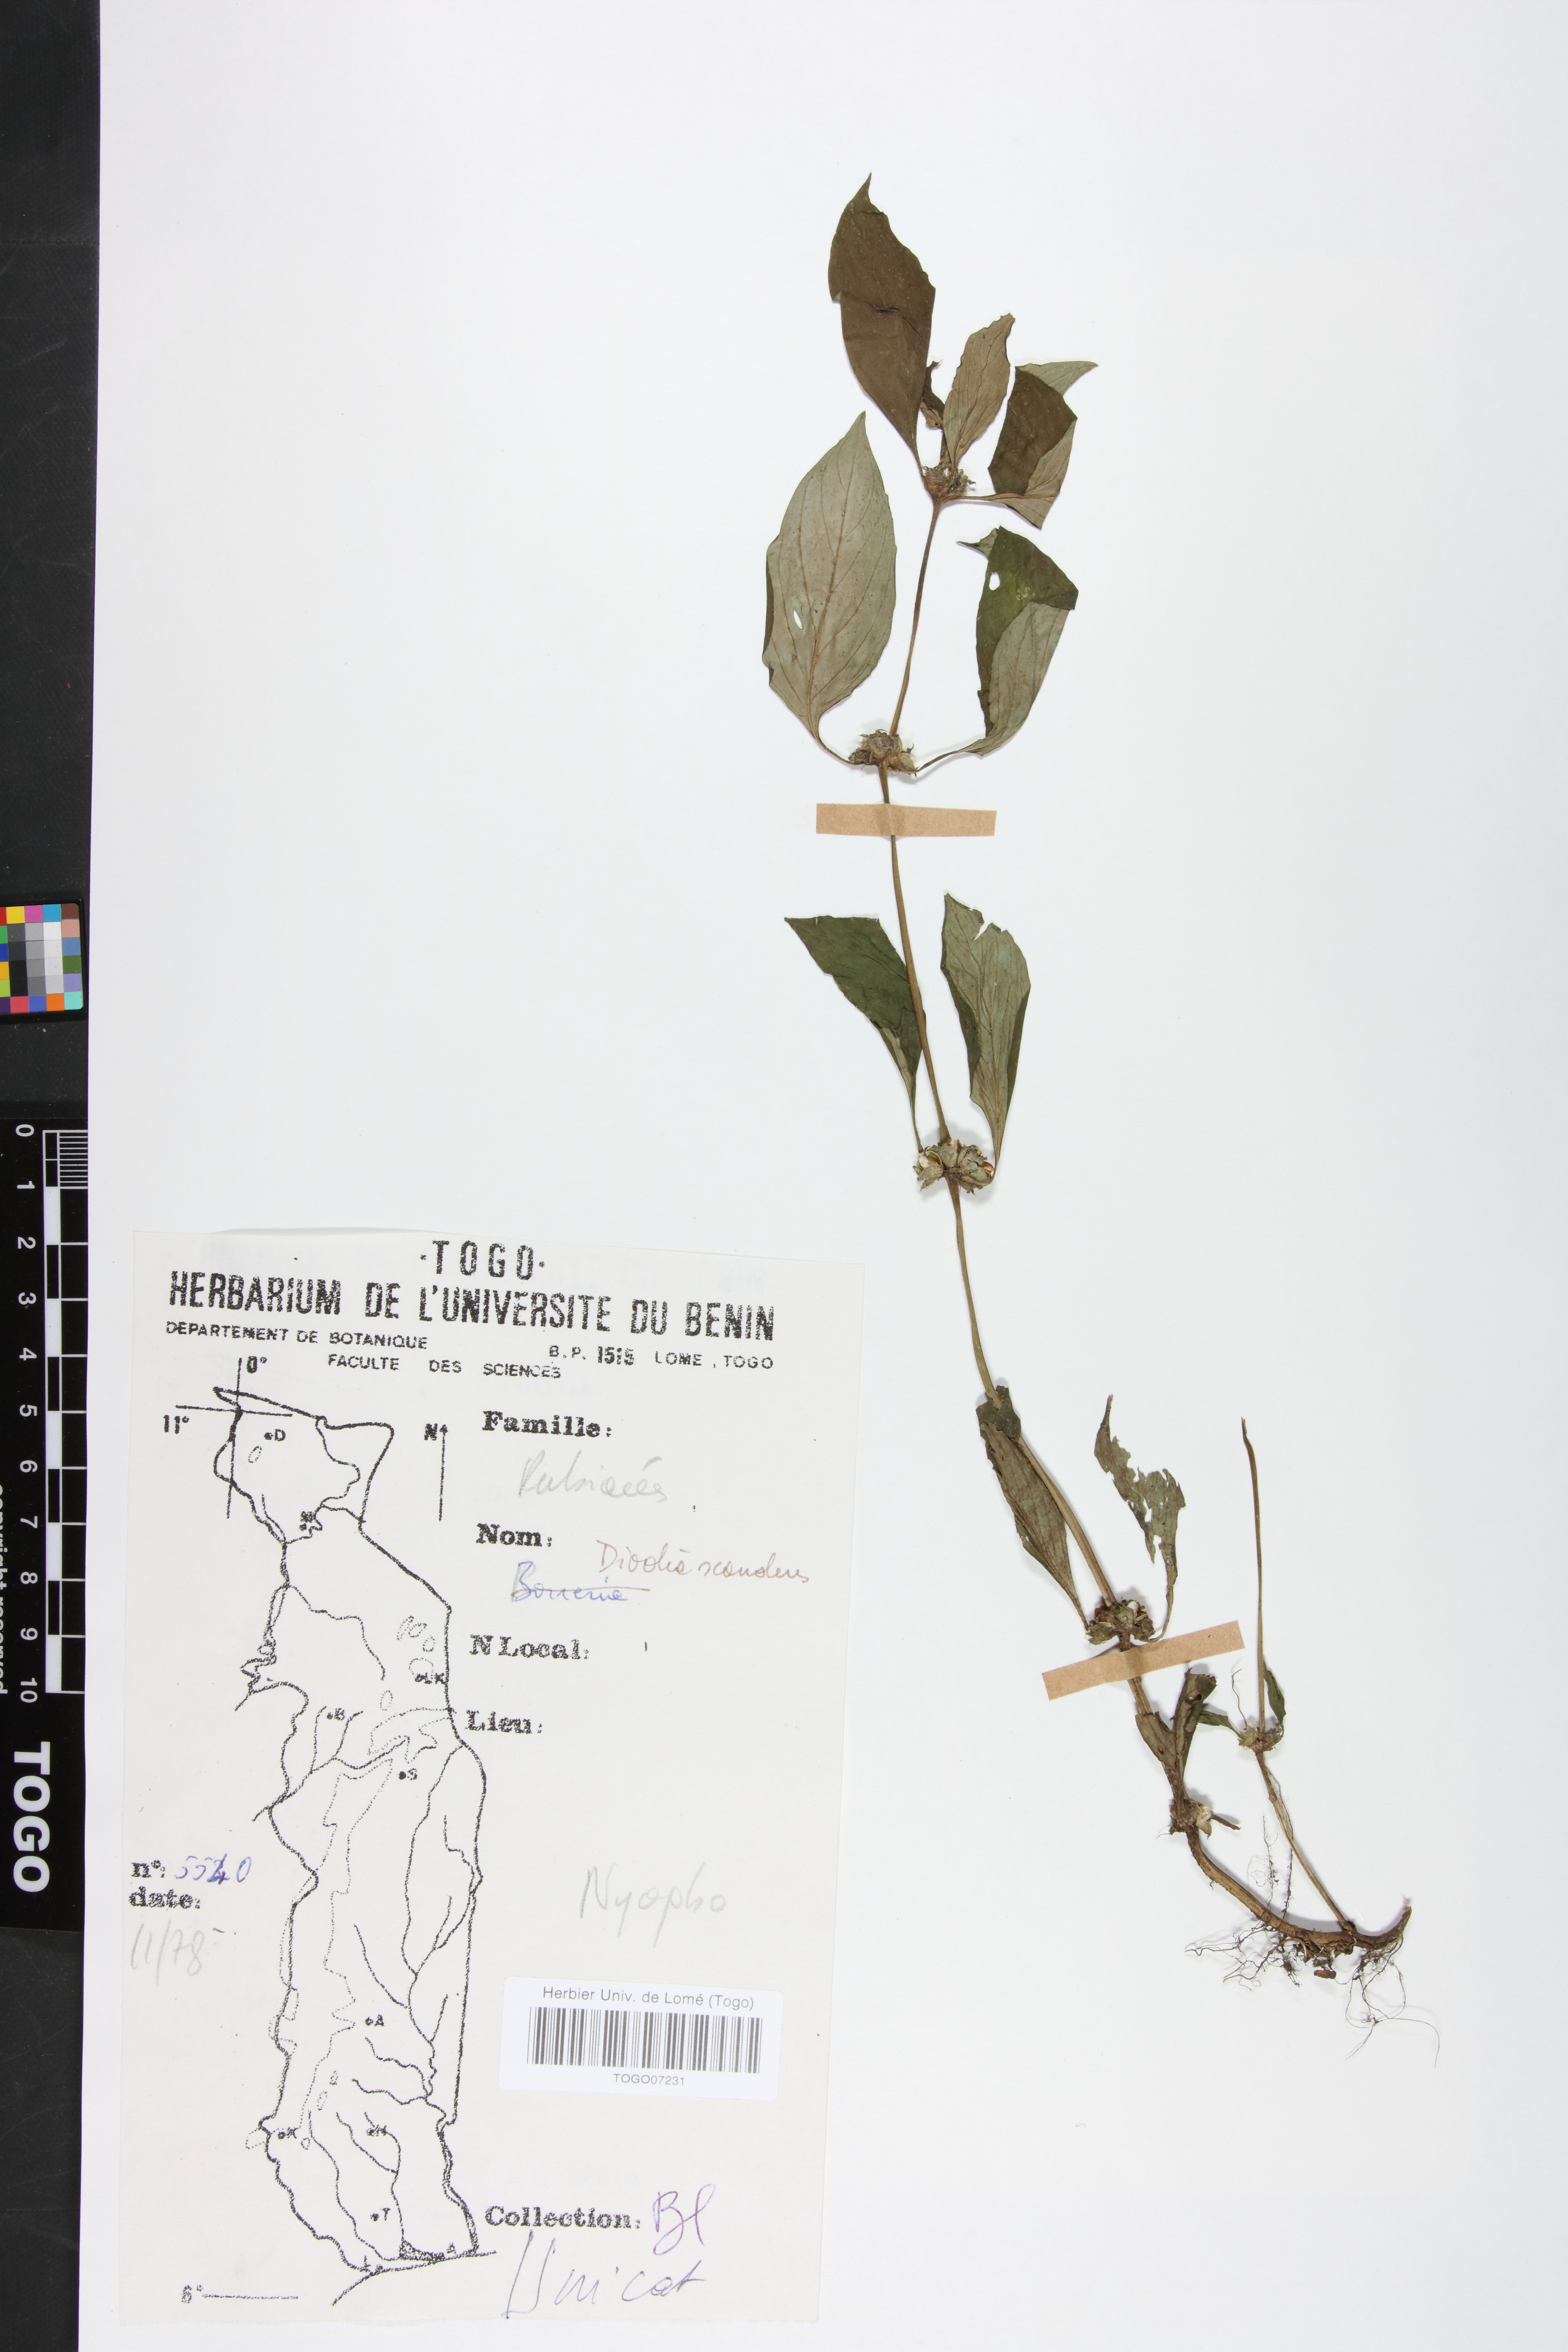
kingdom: Plantae
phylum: Tracheophyta
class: Magnoliopsida
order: Gentianales
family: Rubiaceae
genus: Hexasepalum
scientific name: Hexasepalum scandens
